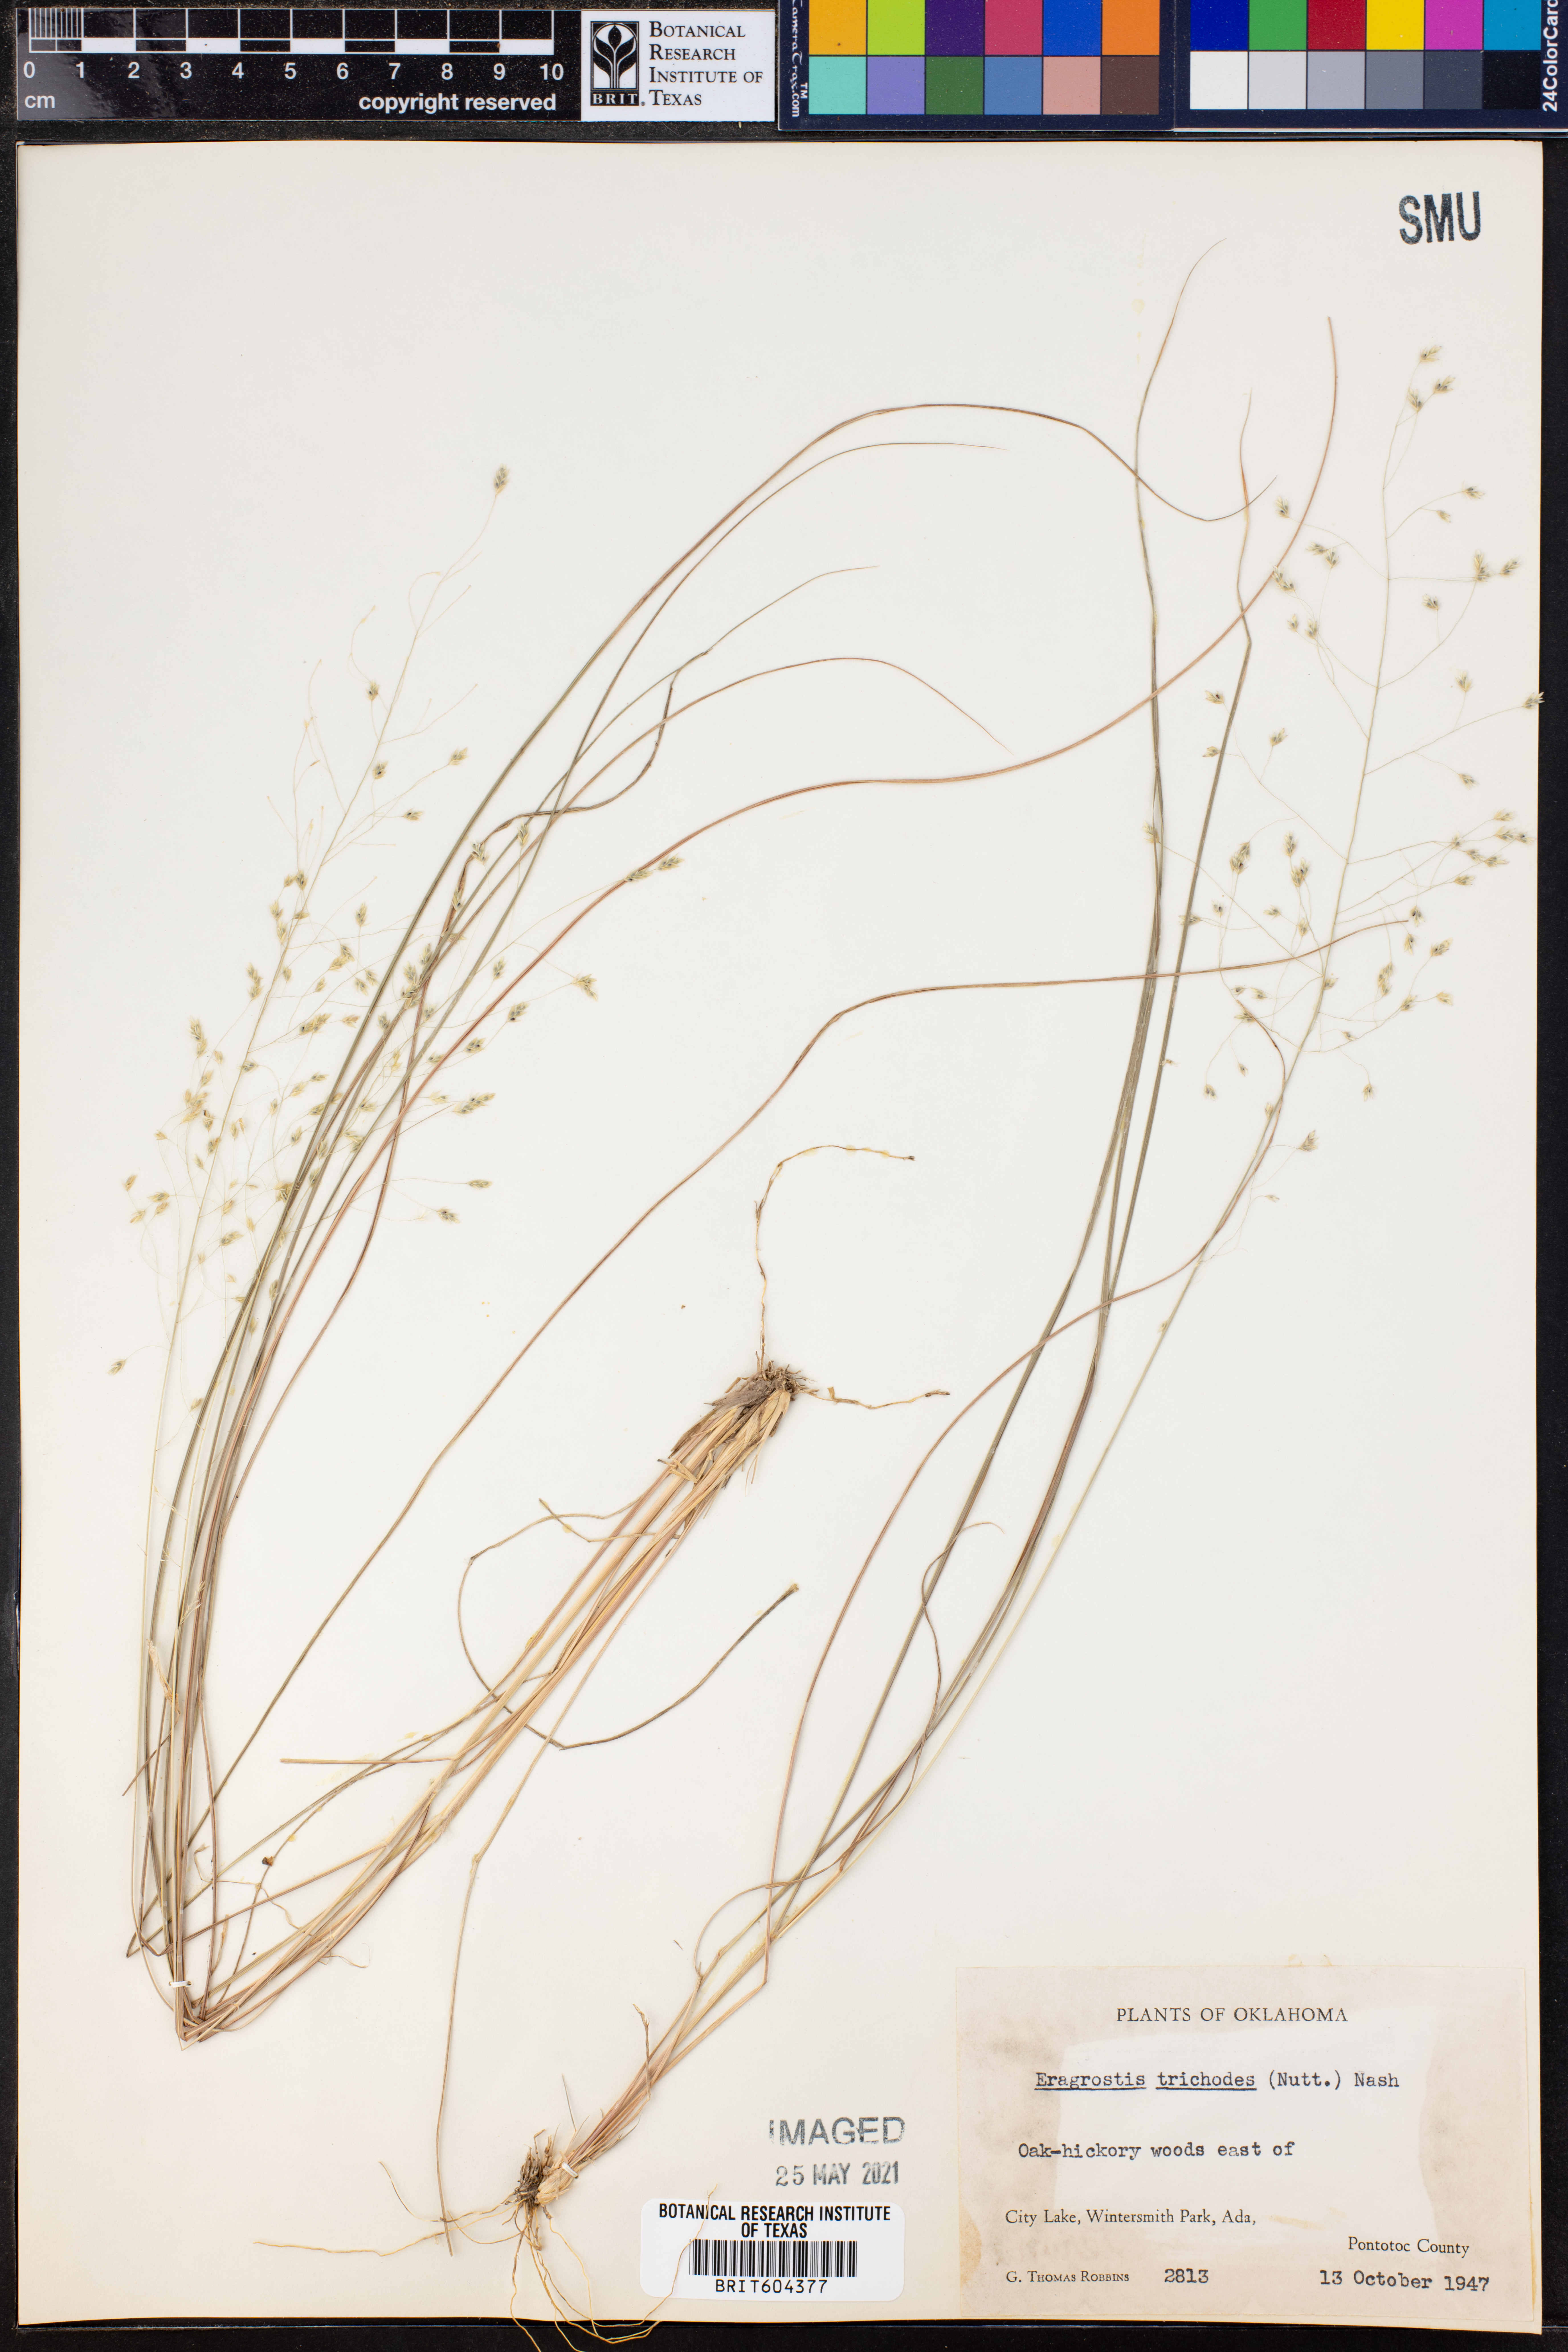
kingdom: Plantae
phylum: Tracheophyta
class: Liliopsida
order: Poales
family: Poaceae
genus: Eragrostis
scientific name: Eragrostis trichodes
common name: Sand love grass
